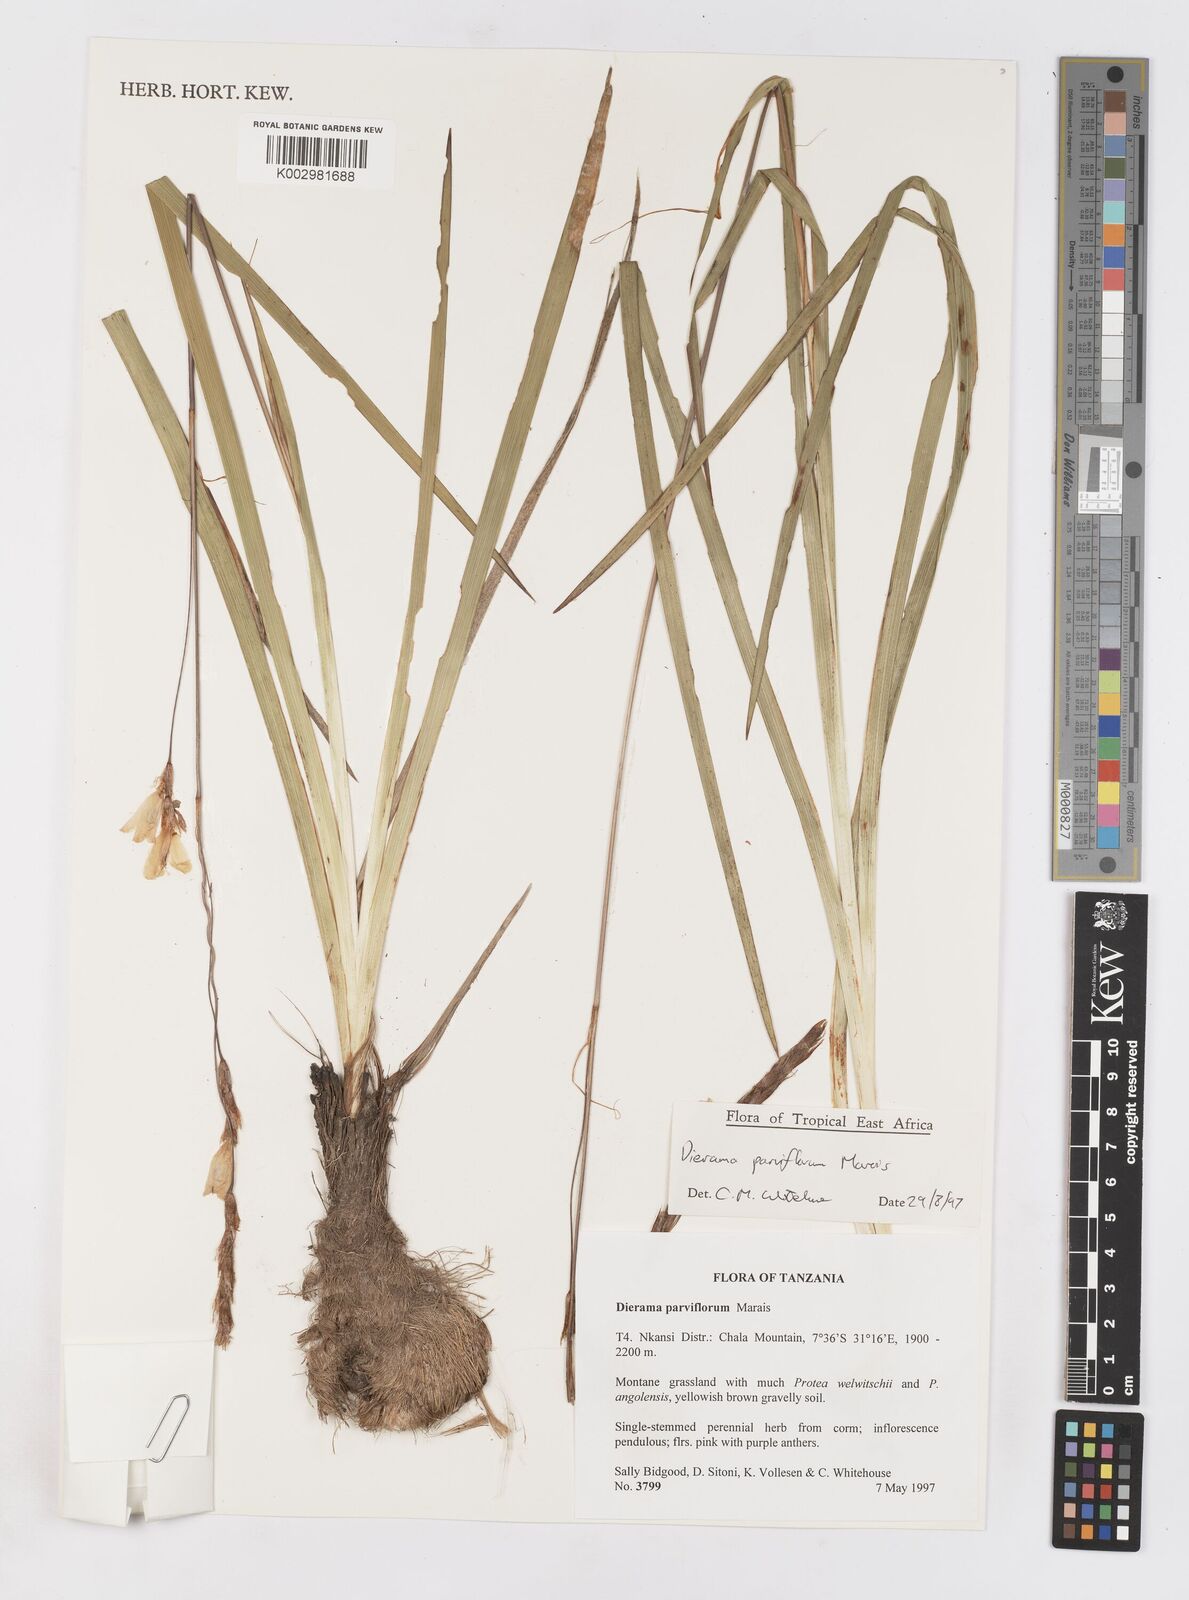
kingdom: Plantae
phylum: Tracheophyta
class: Liliopsida
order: Asparagales
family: Iridaceae
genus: Dierama
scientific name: Dierama parviflorum
